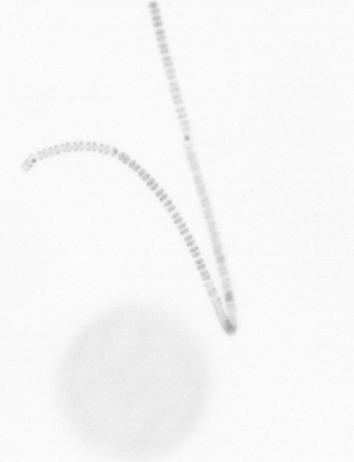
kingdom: Chromista
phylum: Ochrophyta
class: Bacillariophyceae
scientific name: Bacillariophyceae
